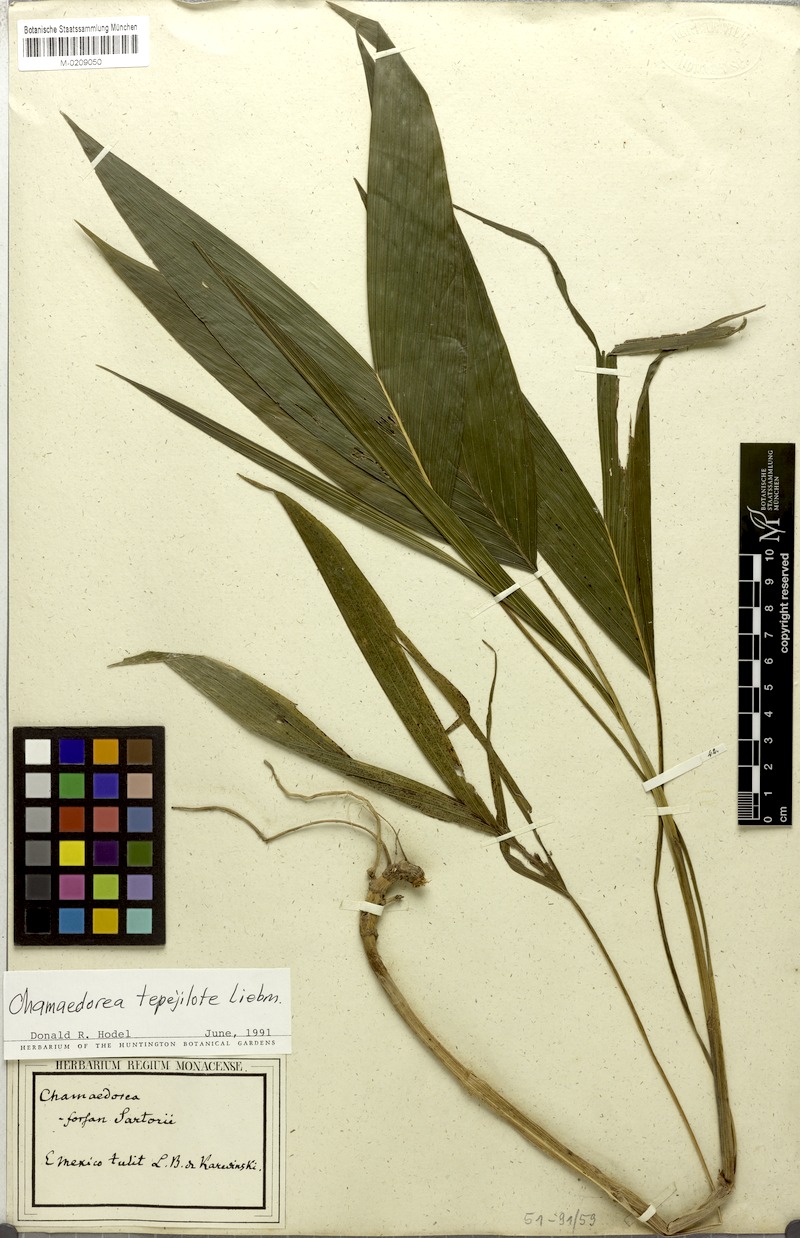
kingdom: Plantae
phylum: Tracheophyta
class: Liliopsida
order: Arecales
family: Arecaceae
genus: Chamaedorea
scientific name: Chamaedorea tepejilote
